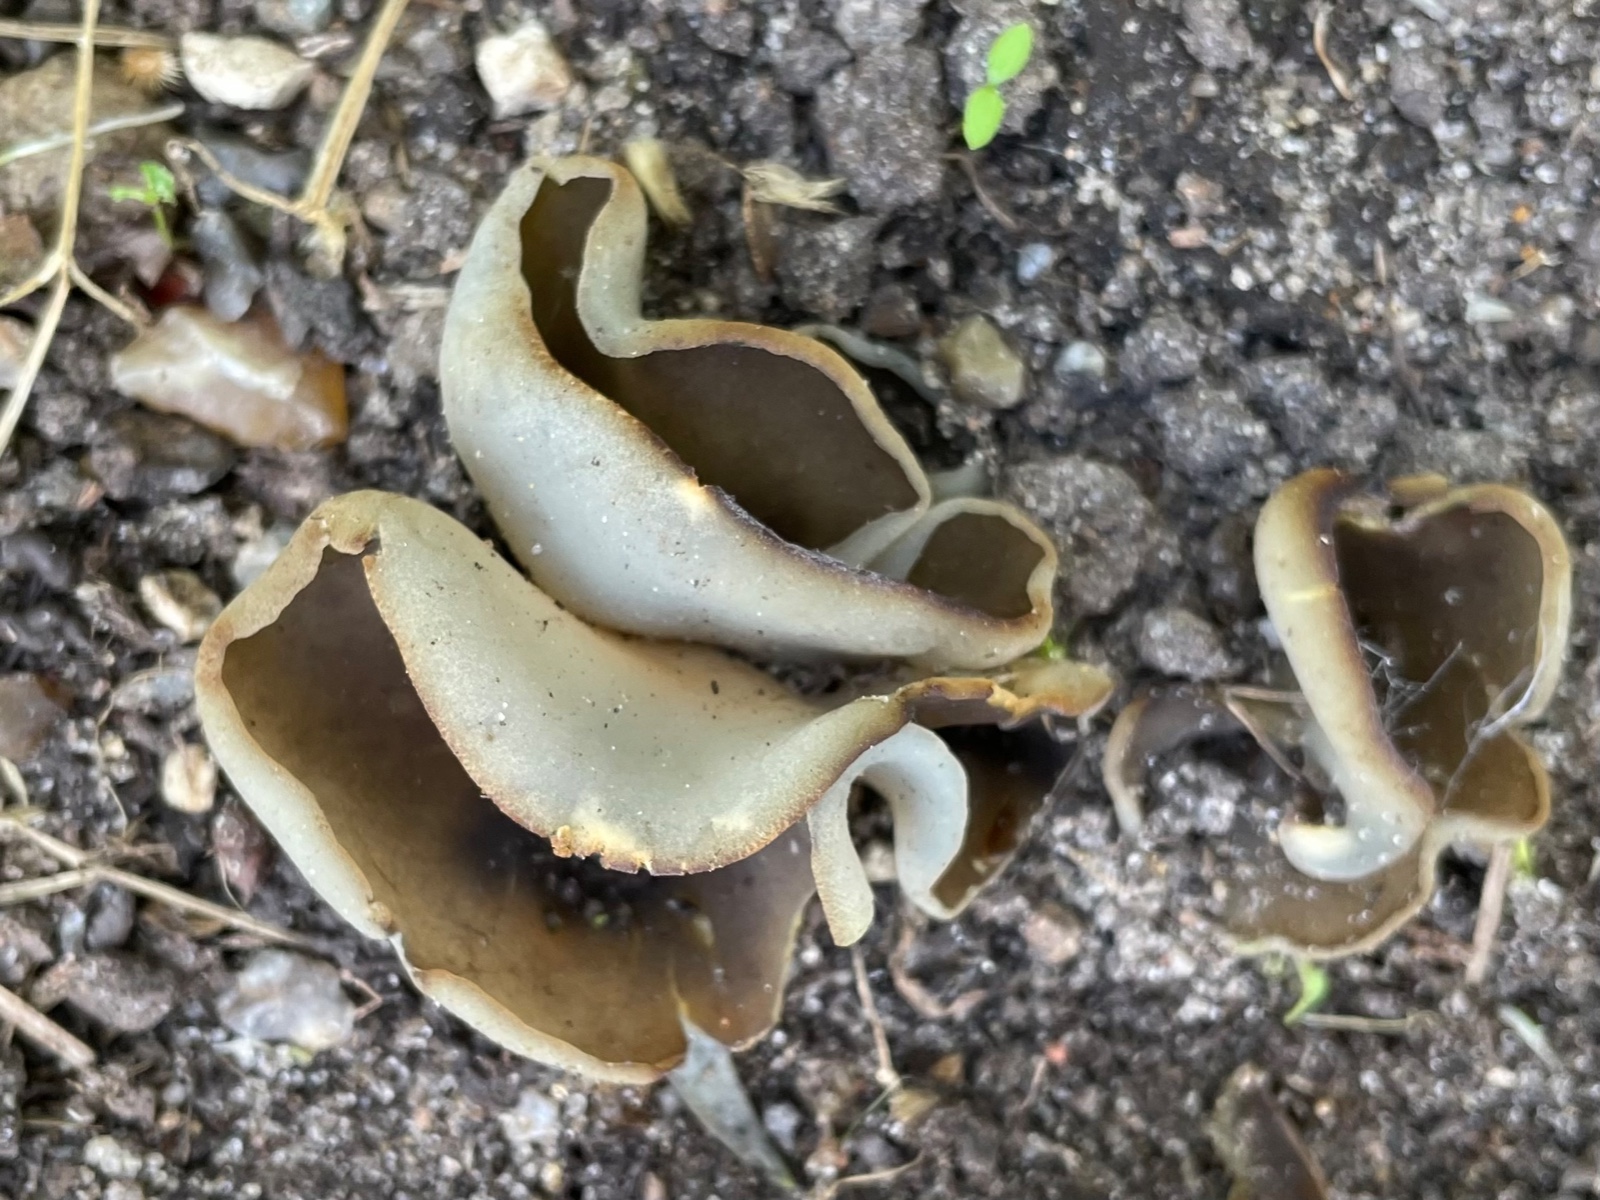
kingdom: Fungi
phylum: Ascomycota
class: Pezizomycetes
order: Pezizales
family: Pezizaceae
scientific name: Pezizaceae
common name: bægersvampfamilien
